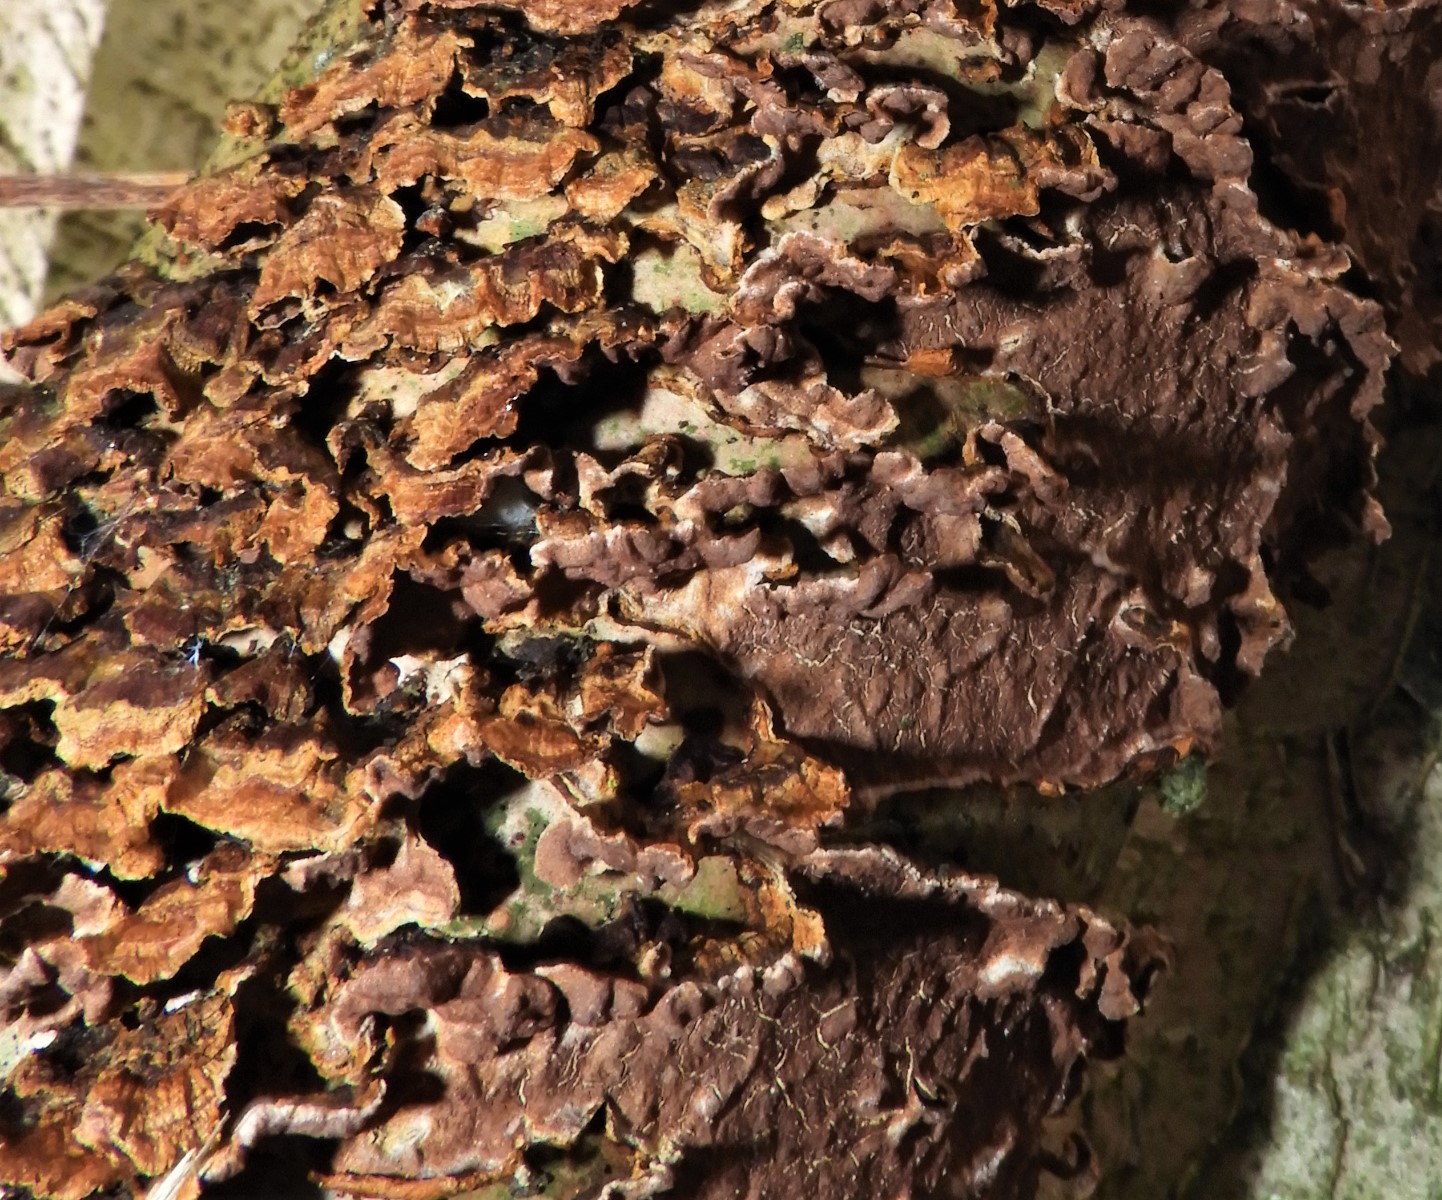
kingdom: Fungi
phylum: Basidiomycota
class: Agaricomycetes
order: Hymenochaetales
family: Hymenochaetaceae
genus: Hydnoporia
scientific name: Hydnoporia tabacina
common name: tobaksbrun ruslædersvamp
